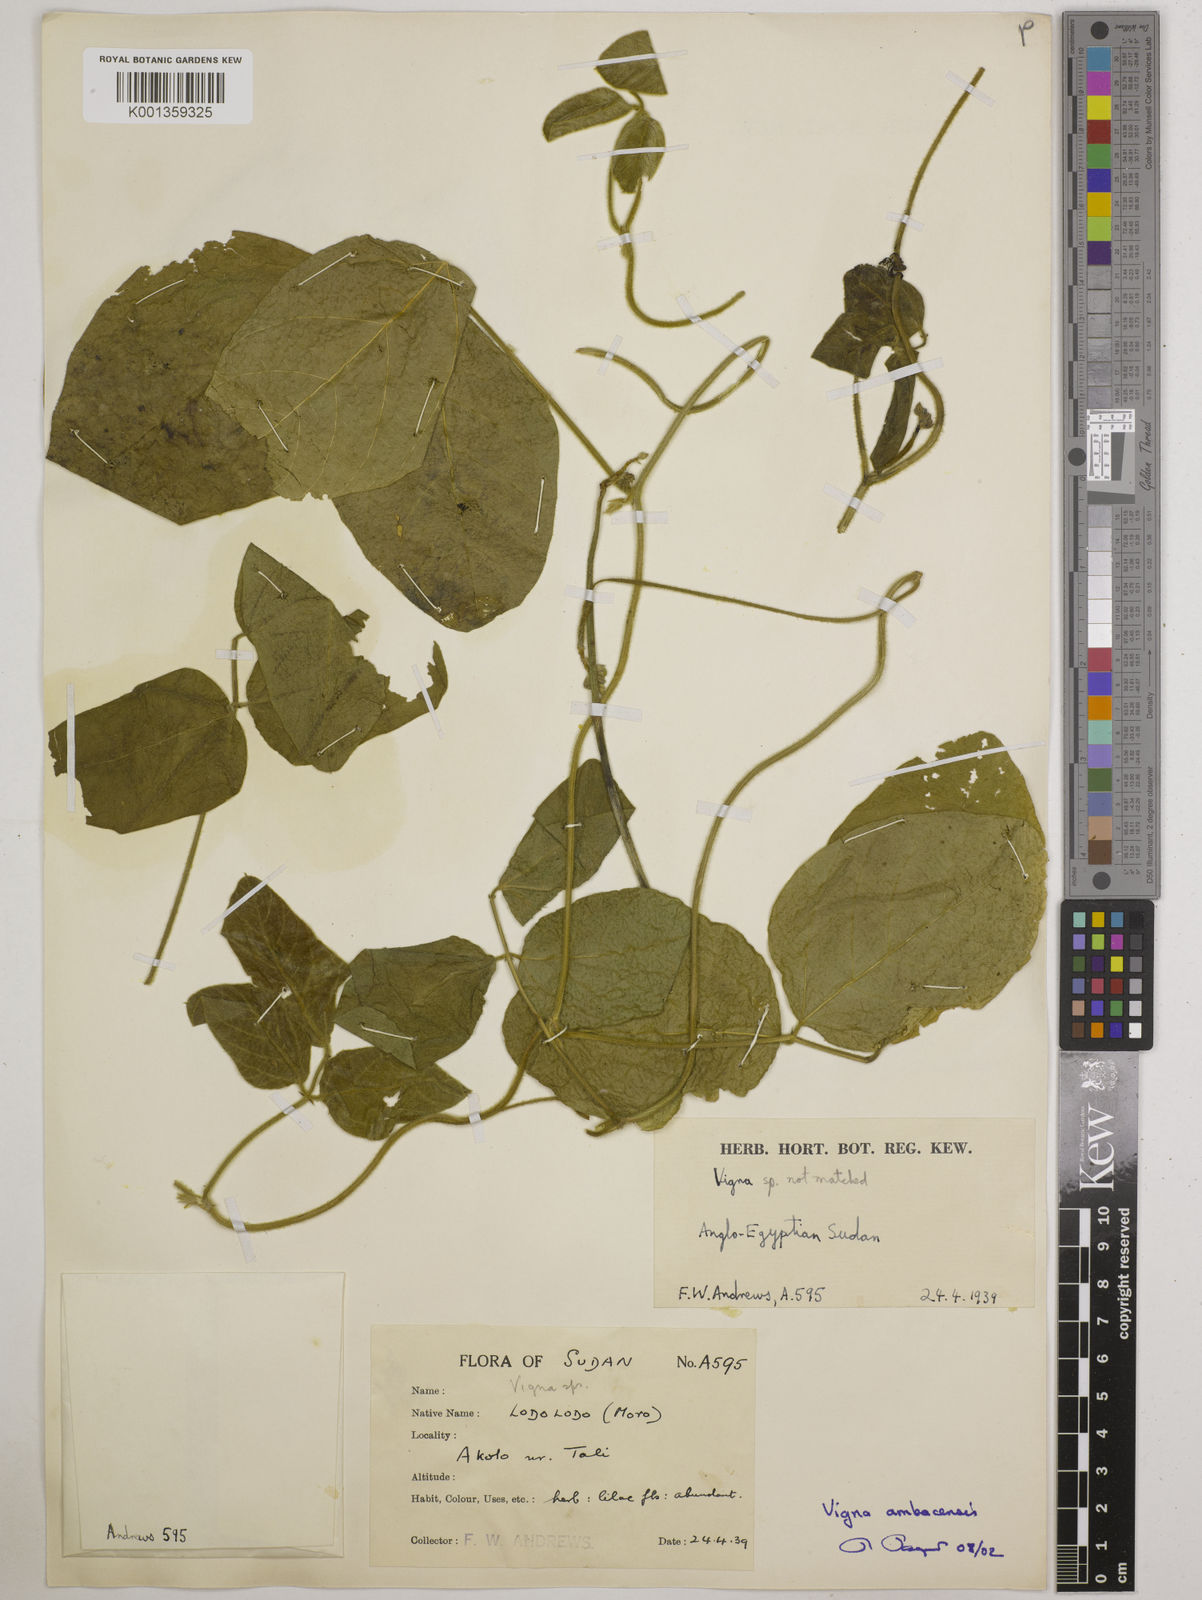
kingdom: Plantae
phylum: Tracheophyta
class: Magnoliopsida
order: Fabales
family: Fabaceae
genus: Vigna
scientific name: Vigna
